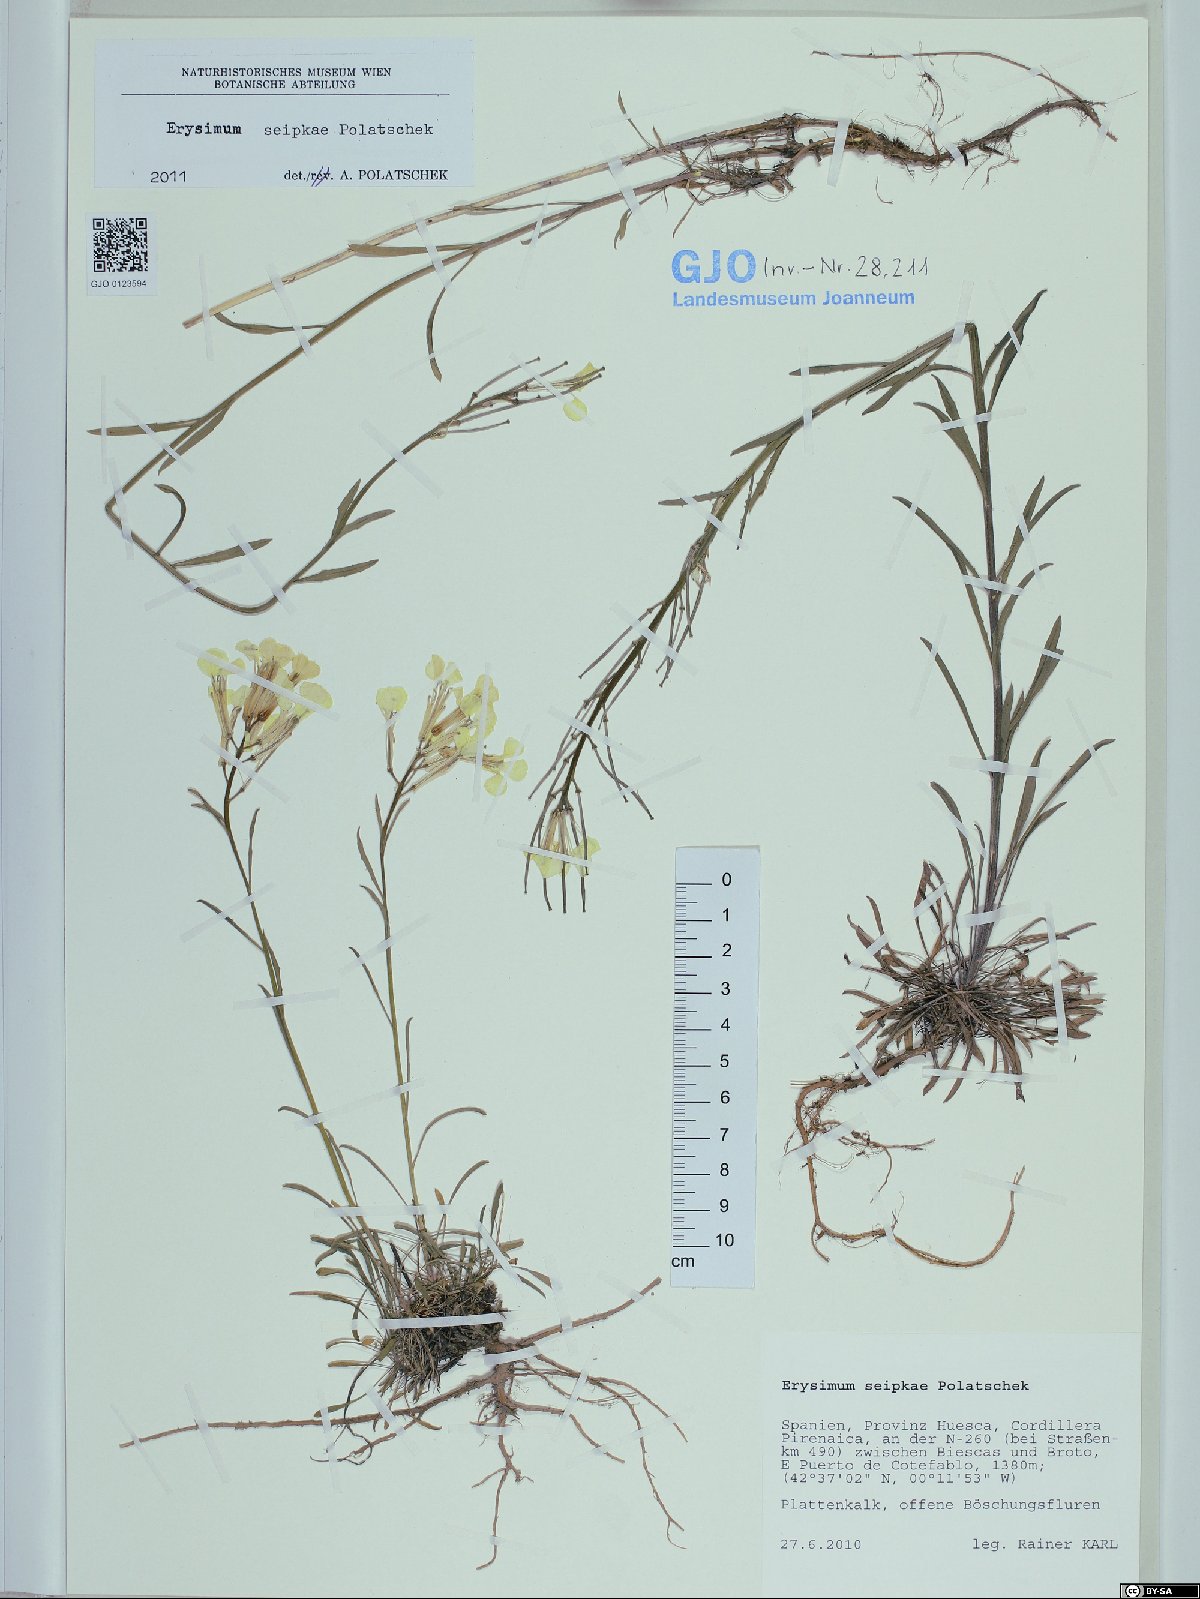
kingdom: Plantae
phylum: Tracheophyta
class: Magnoliopsida
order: Brassicales
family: Brassicaceae
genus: Erysimum
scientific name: Erysimum seipkae
